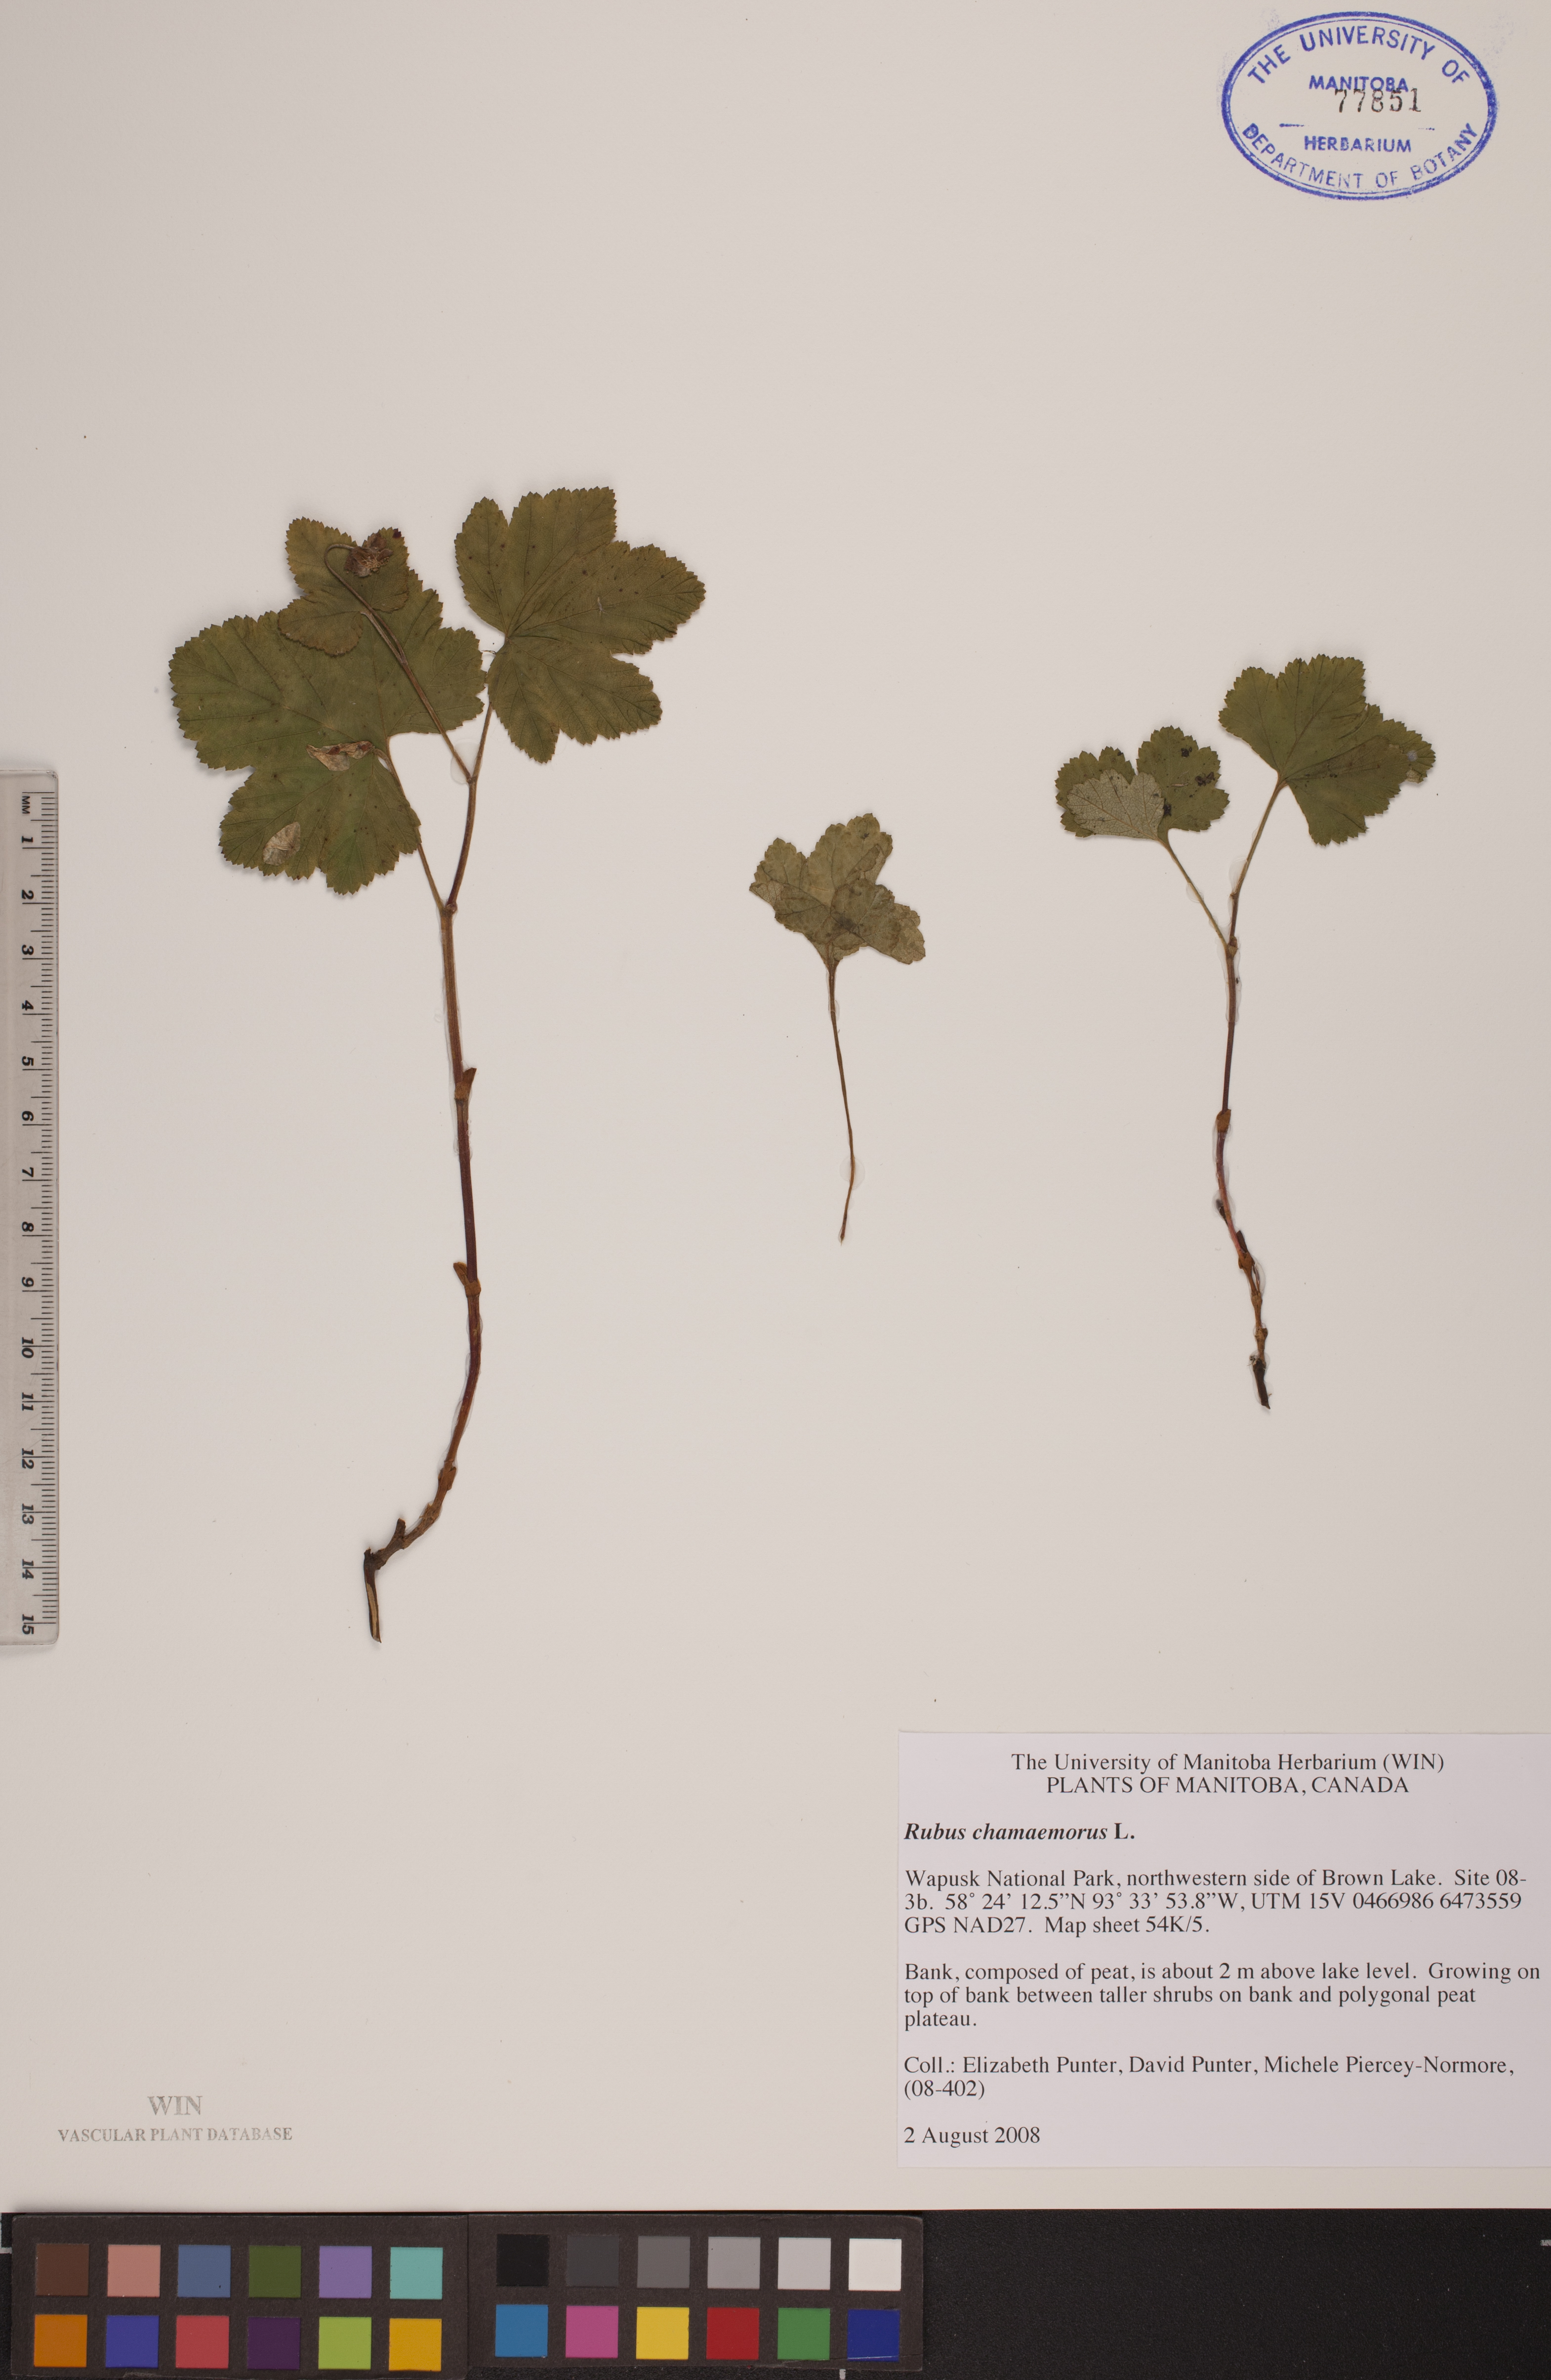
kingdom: Plantae
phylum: Tracheophyta
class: Magnoliopsida
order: Rosales
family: Rosaceae
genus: Rubus
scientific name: Rubus chamaemorus
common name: Cloudberry
